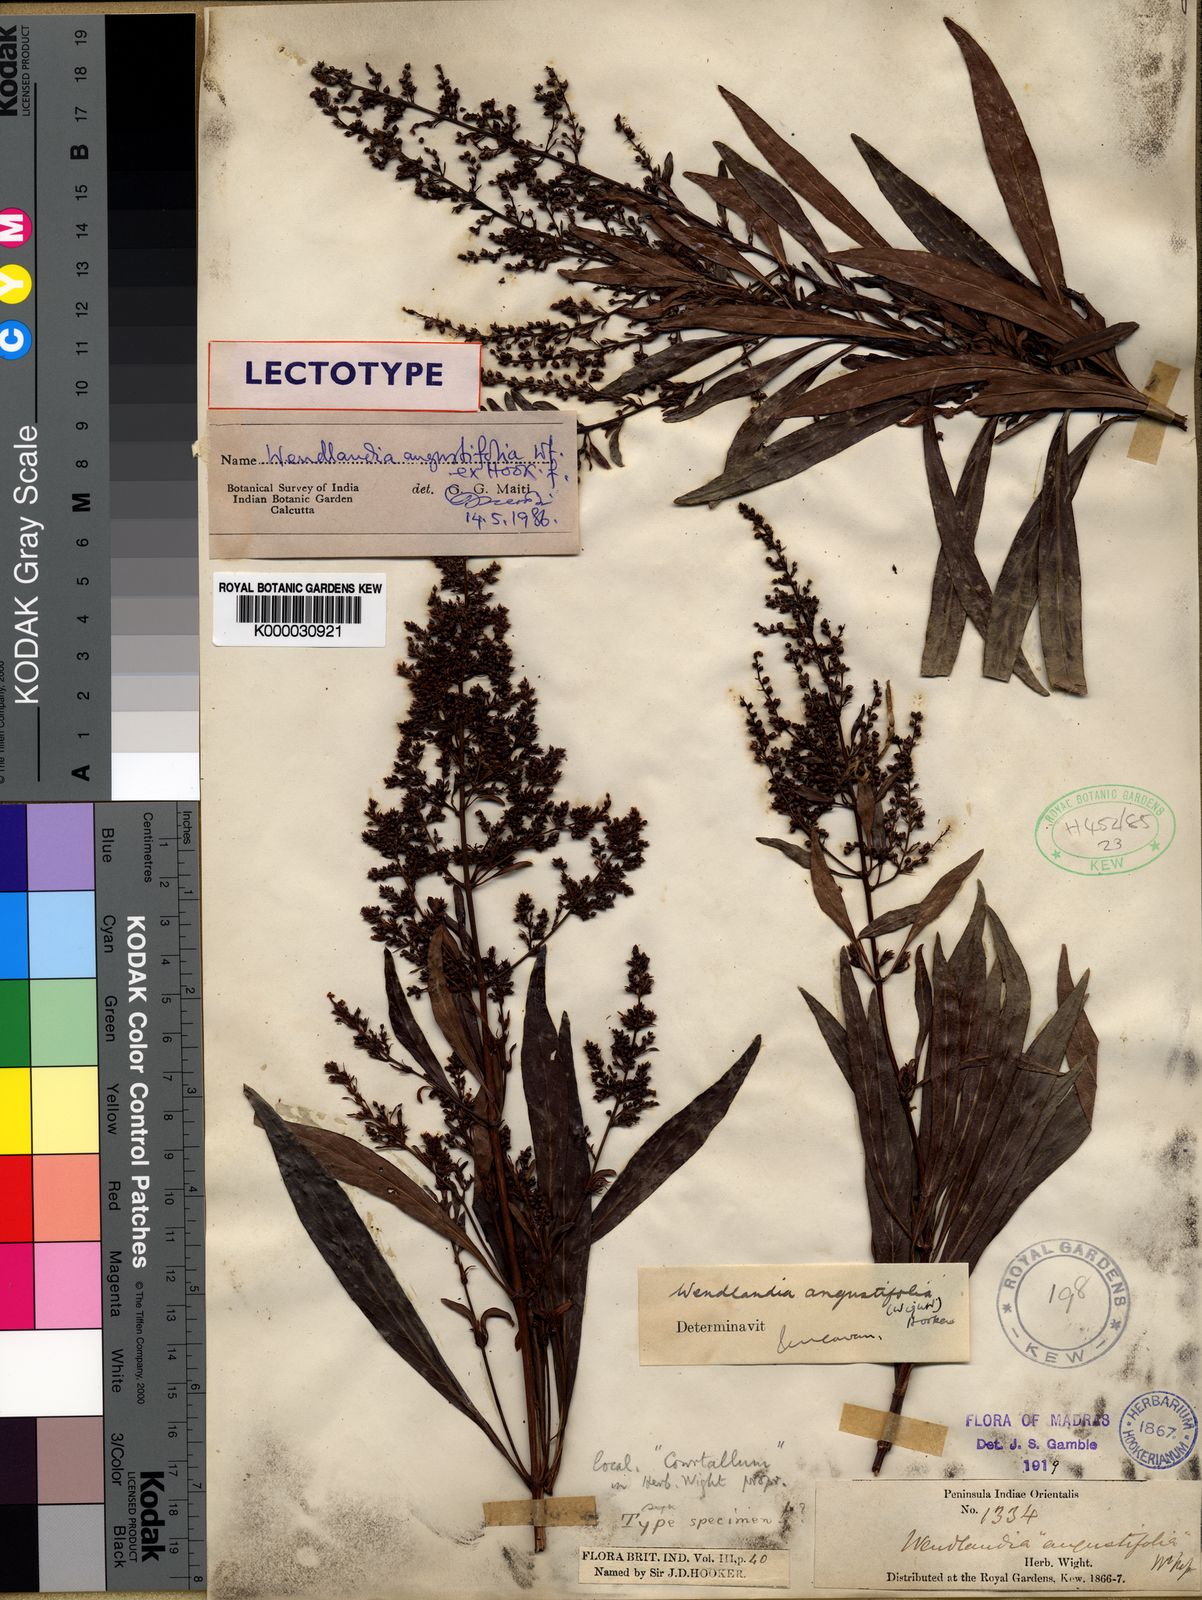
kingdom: Plantae
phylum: Tracheophyta
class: Magnoliopsida
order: Gentianales
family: Rubiaceae
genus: Wendlandia
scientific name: Wendlandia angustifolia
